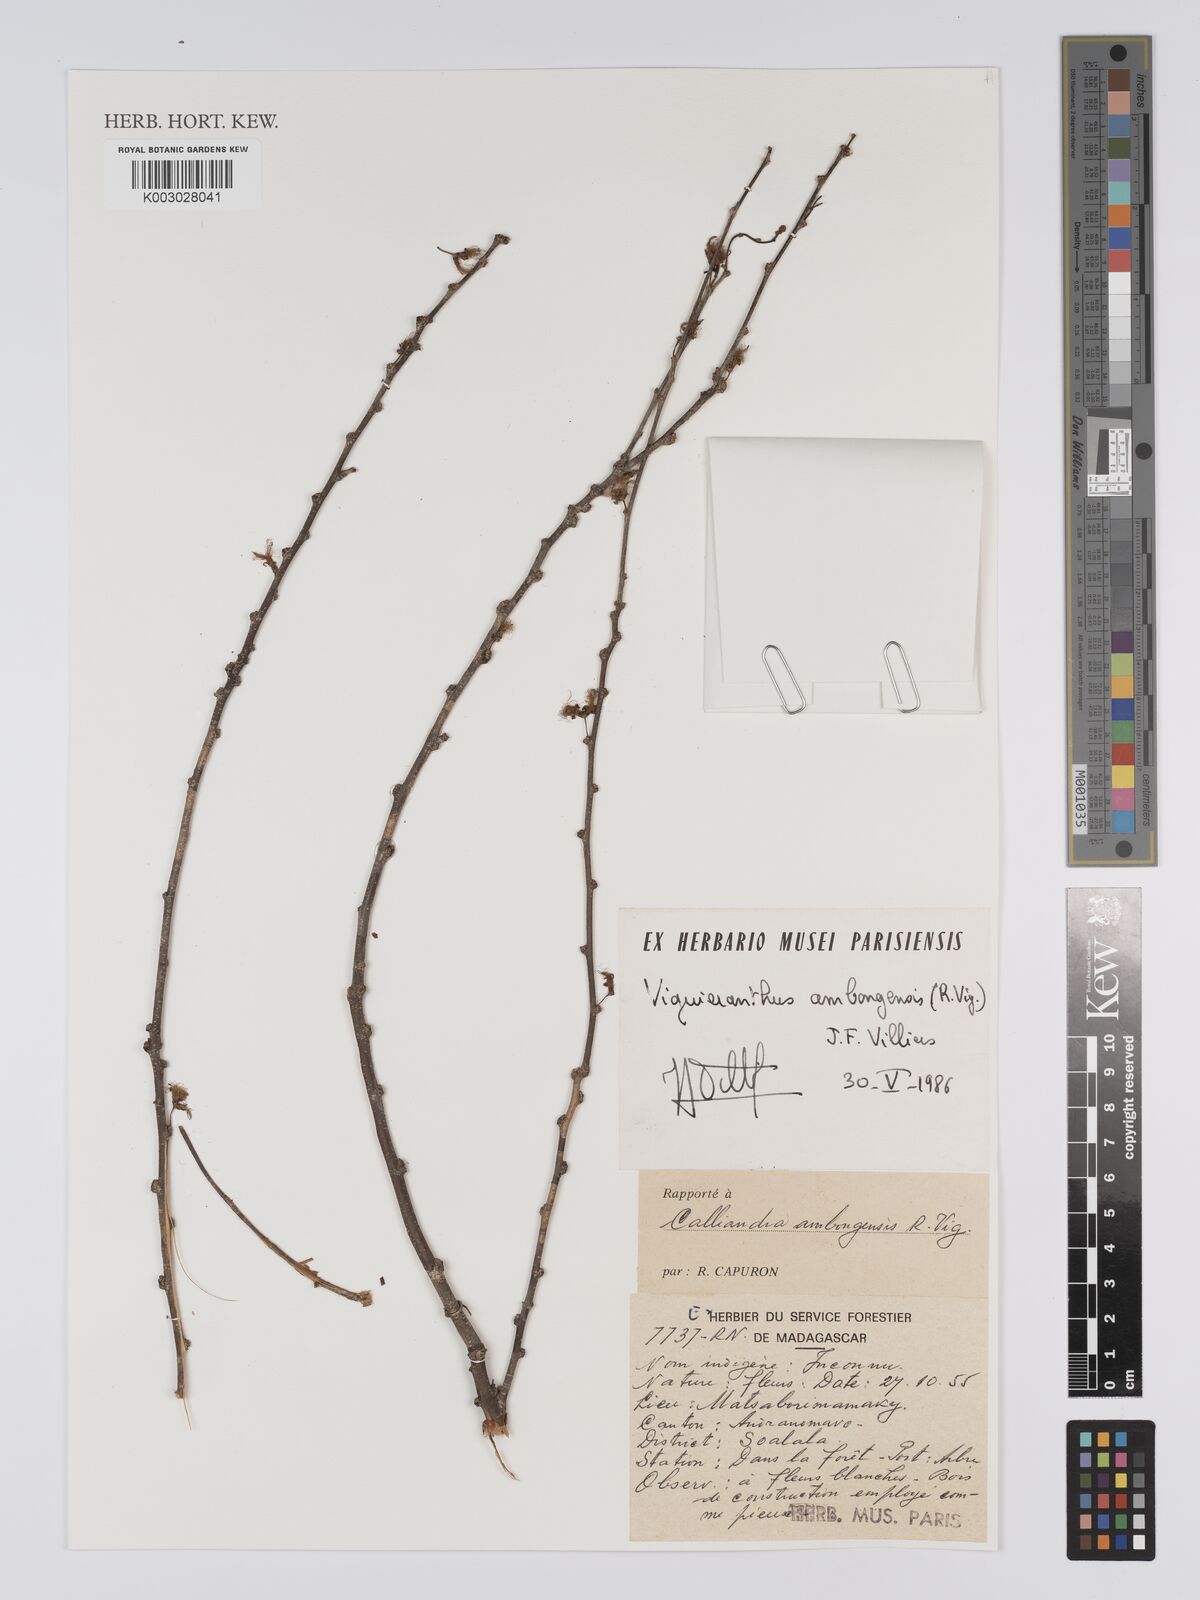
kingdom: Plantae
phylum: Tracheophyta
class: Magnoliopsida
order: Fabales
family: Fabaceae
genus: Viguieranthus
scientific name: Viguieranthus ambongensis
